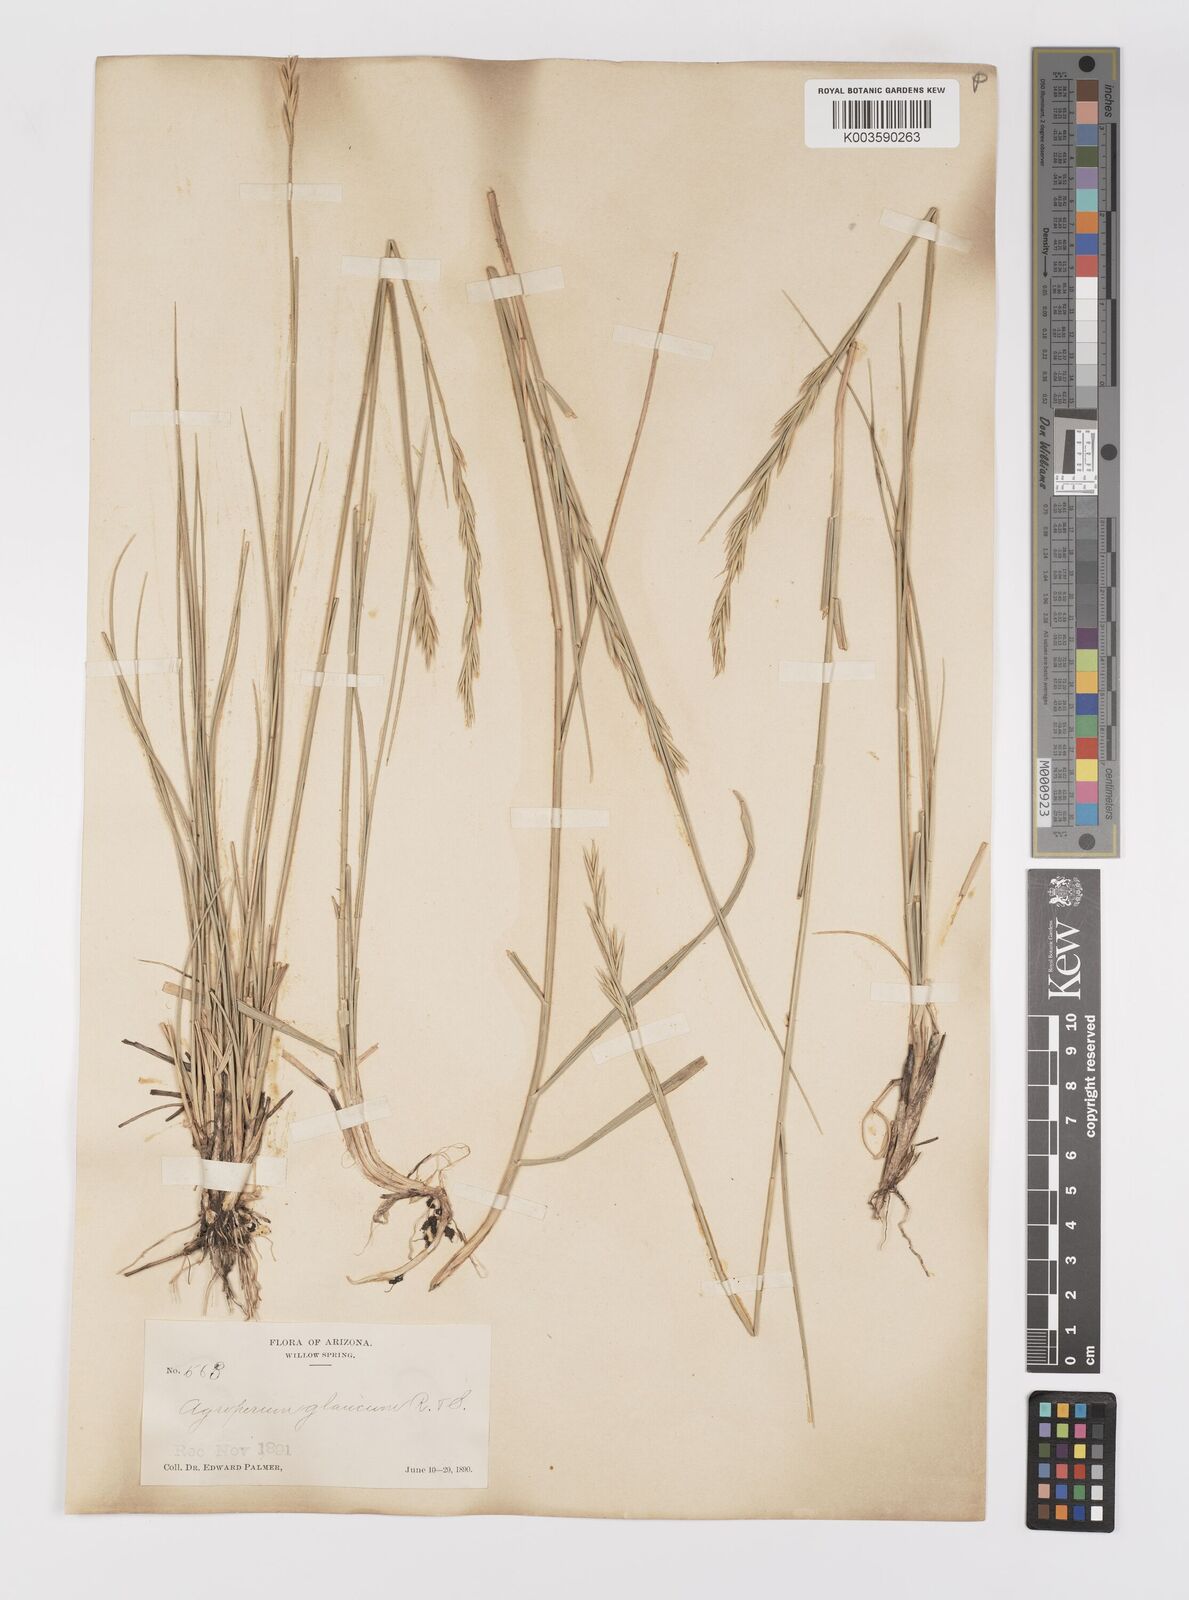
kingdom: Plantae
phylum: Tracheophyta
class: Liliopsida
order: Poales
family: Poaceae
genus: Elymus
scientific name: Elymus
